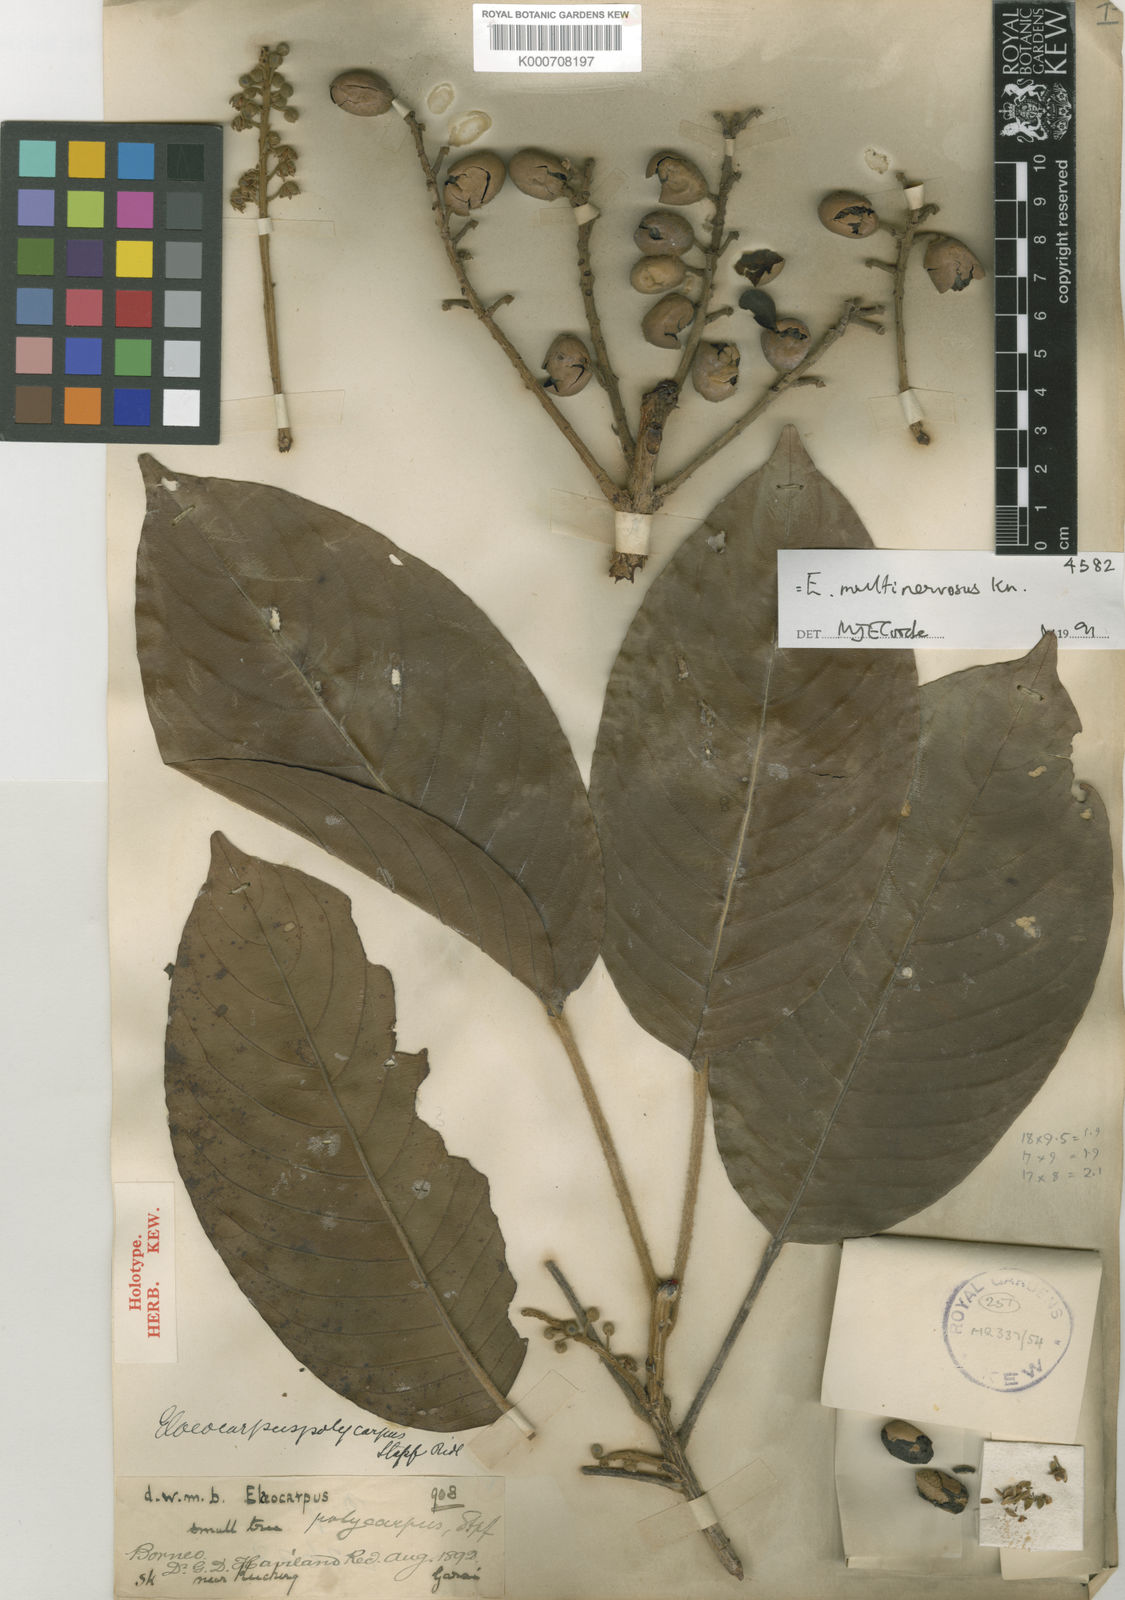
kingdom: Plantae
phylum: Tracheophyta
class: Magnoliopsida
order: Oxalidales
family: Elaeocarpaceae
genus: Elaeocarpus
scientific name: Elaeocarpus multinervosus
